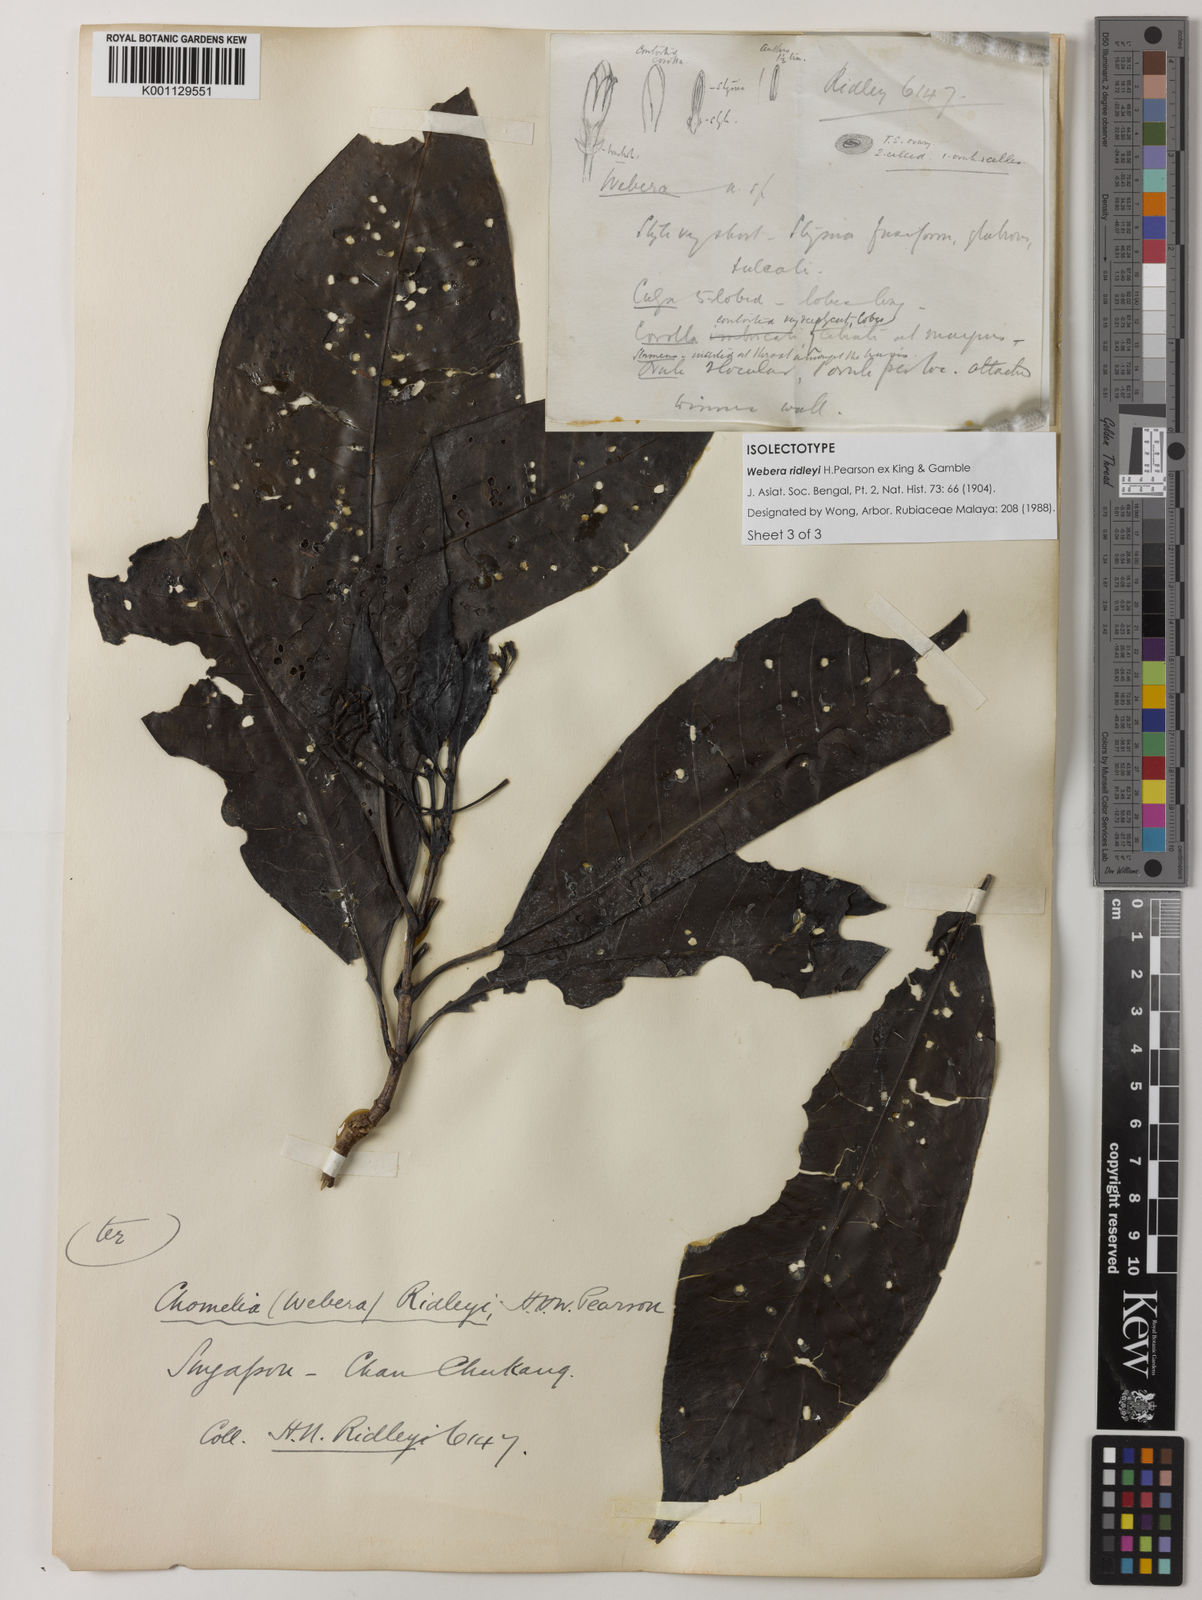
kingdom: Plantae
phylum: Tracheophyta
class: Magnoliopsida
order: Gentianales
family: Rubiaceae
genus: Tarenna
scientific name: Tarenna ridleyi
